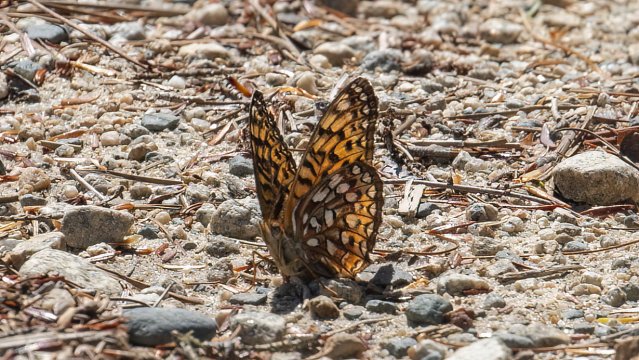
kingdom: Animalia
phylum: Arthropoda
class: Insecta
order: Lepidoptera
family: Nymphalidae
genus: Speyeria
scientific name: Speyeria atlantis
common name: Atlantis Fritillary
